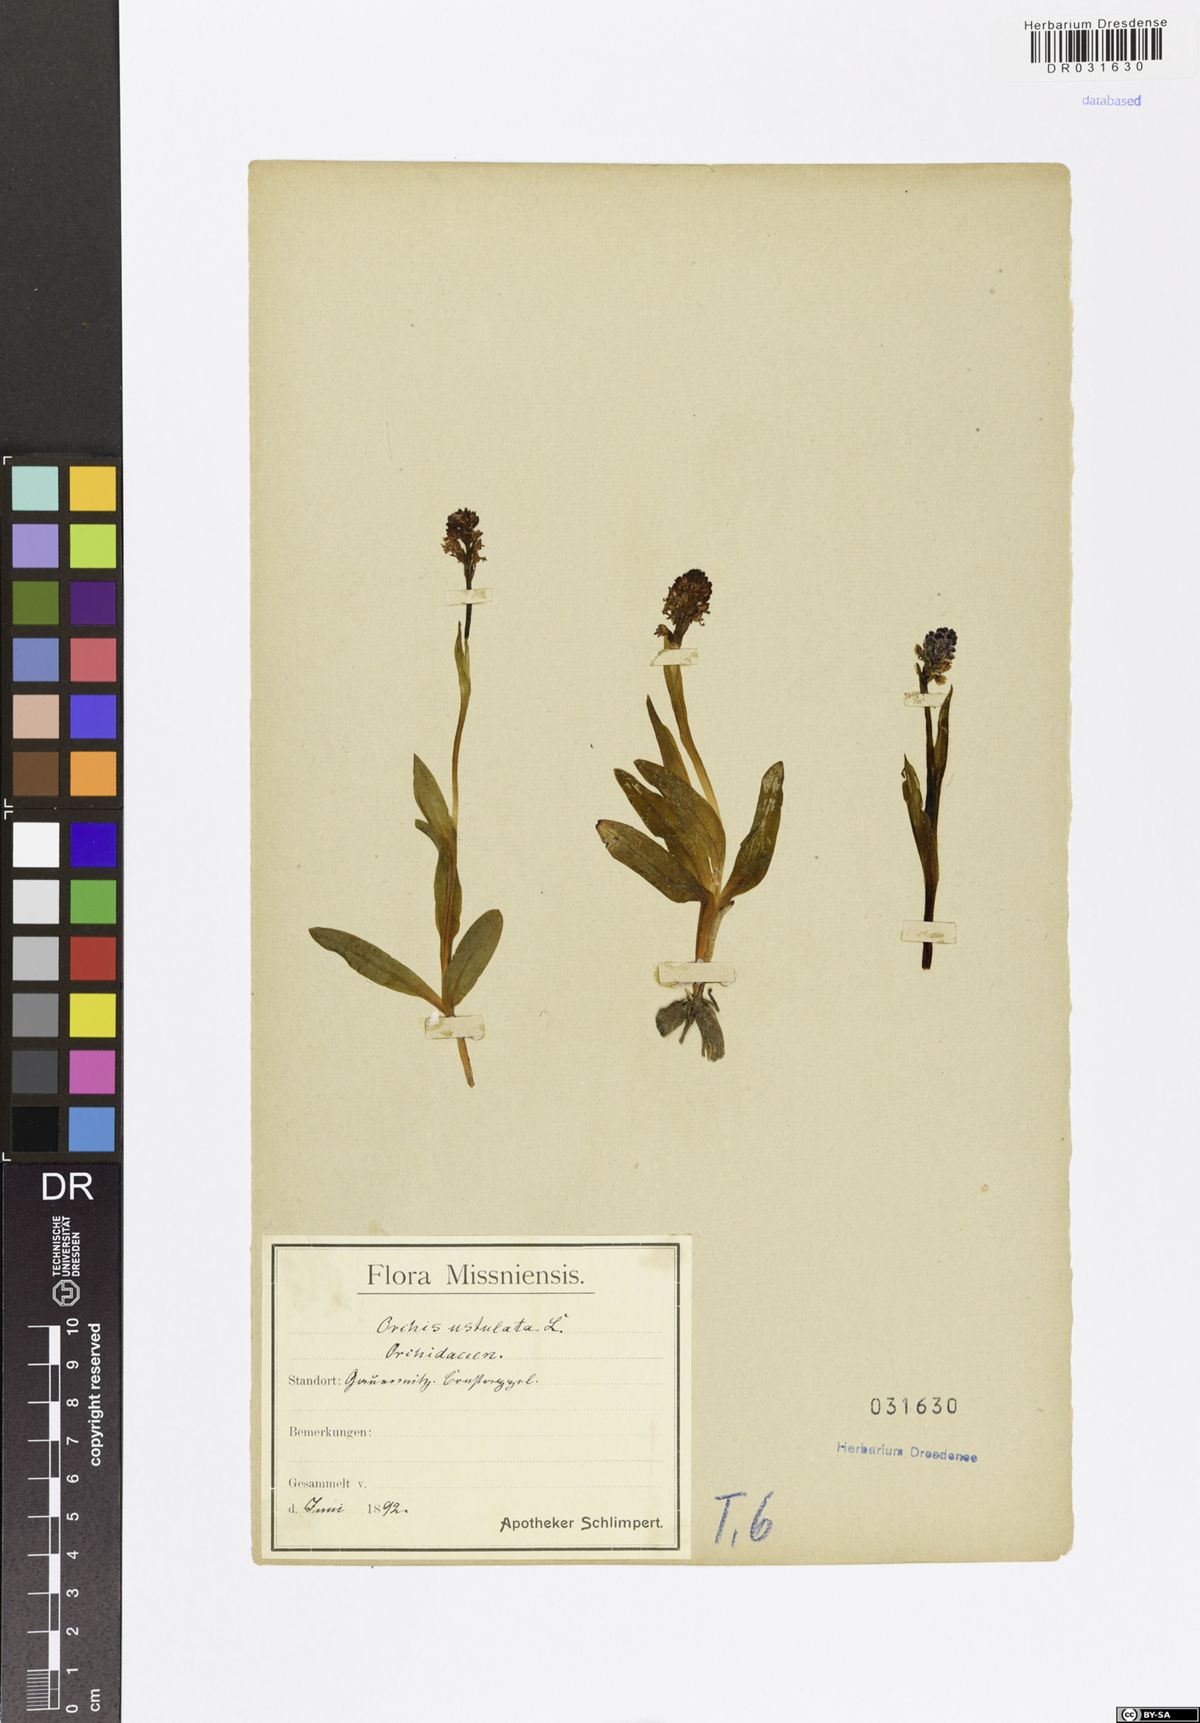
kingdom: Plantae
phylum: Tracheophyta
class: Liliopsida
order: Asparagales
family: Orchidaceae
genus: Neotinea
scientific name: Neotinea ustulata
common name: Burnt orchid
